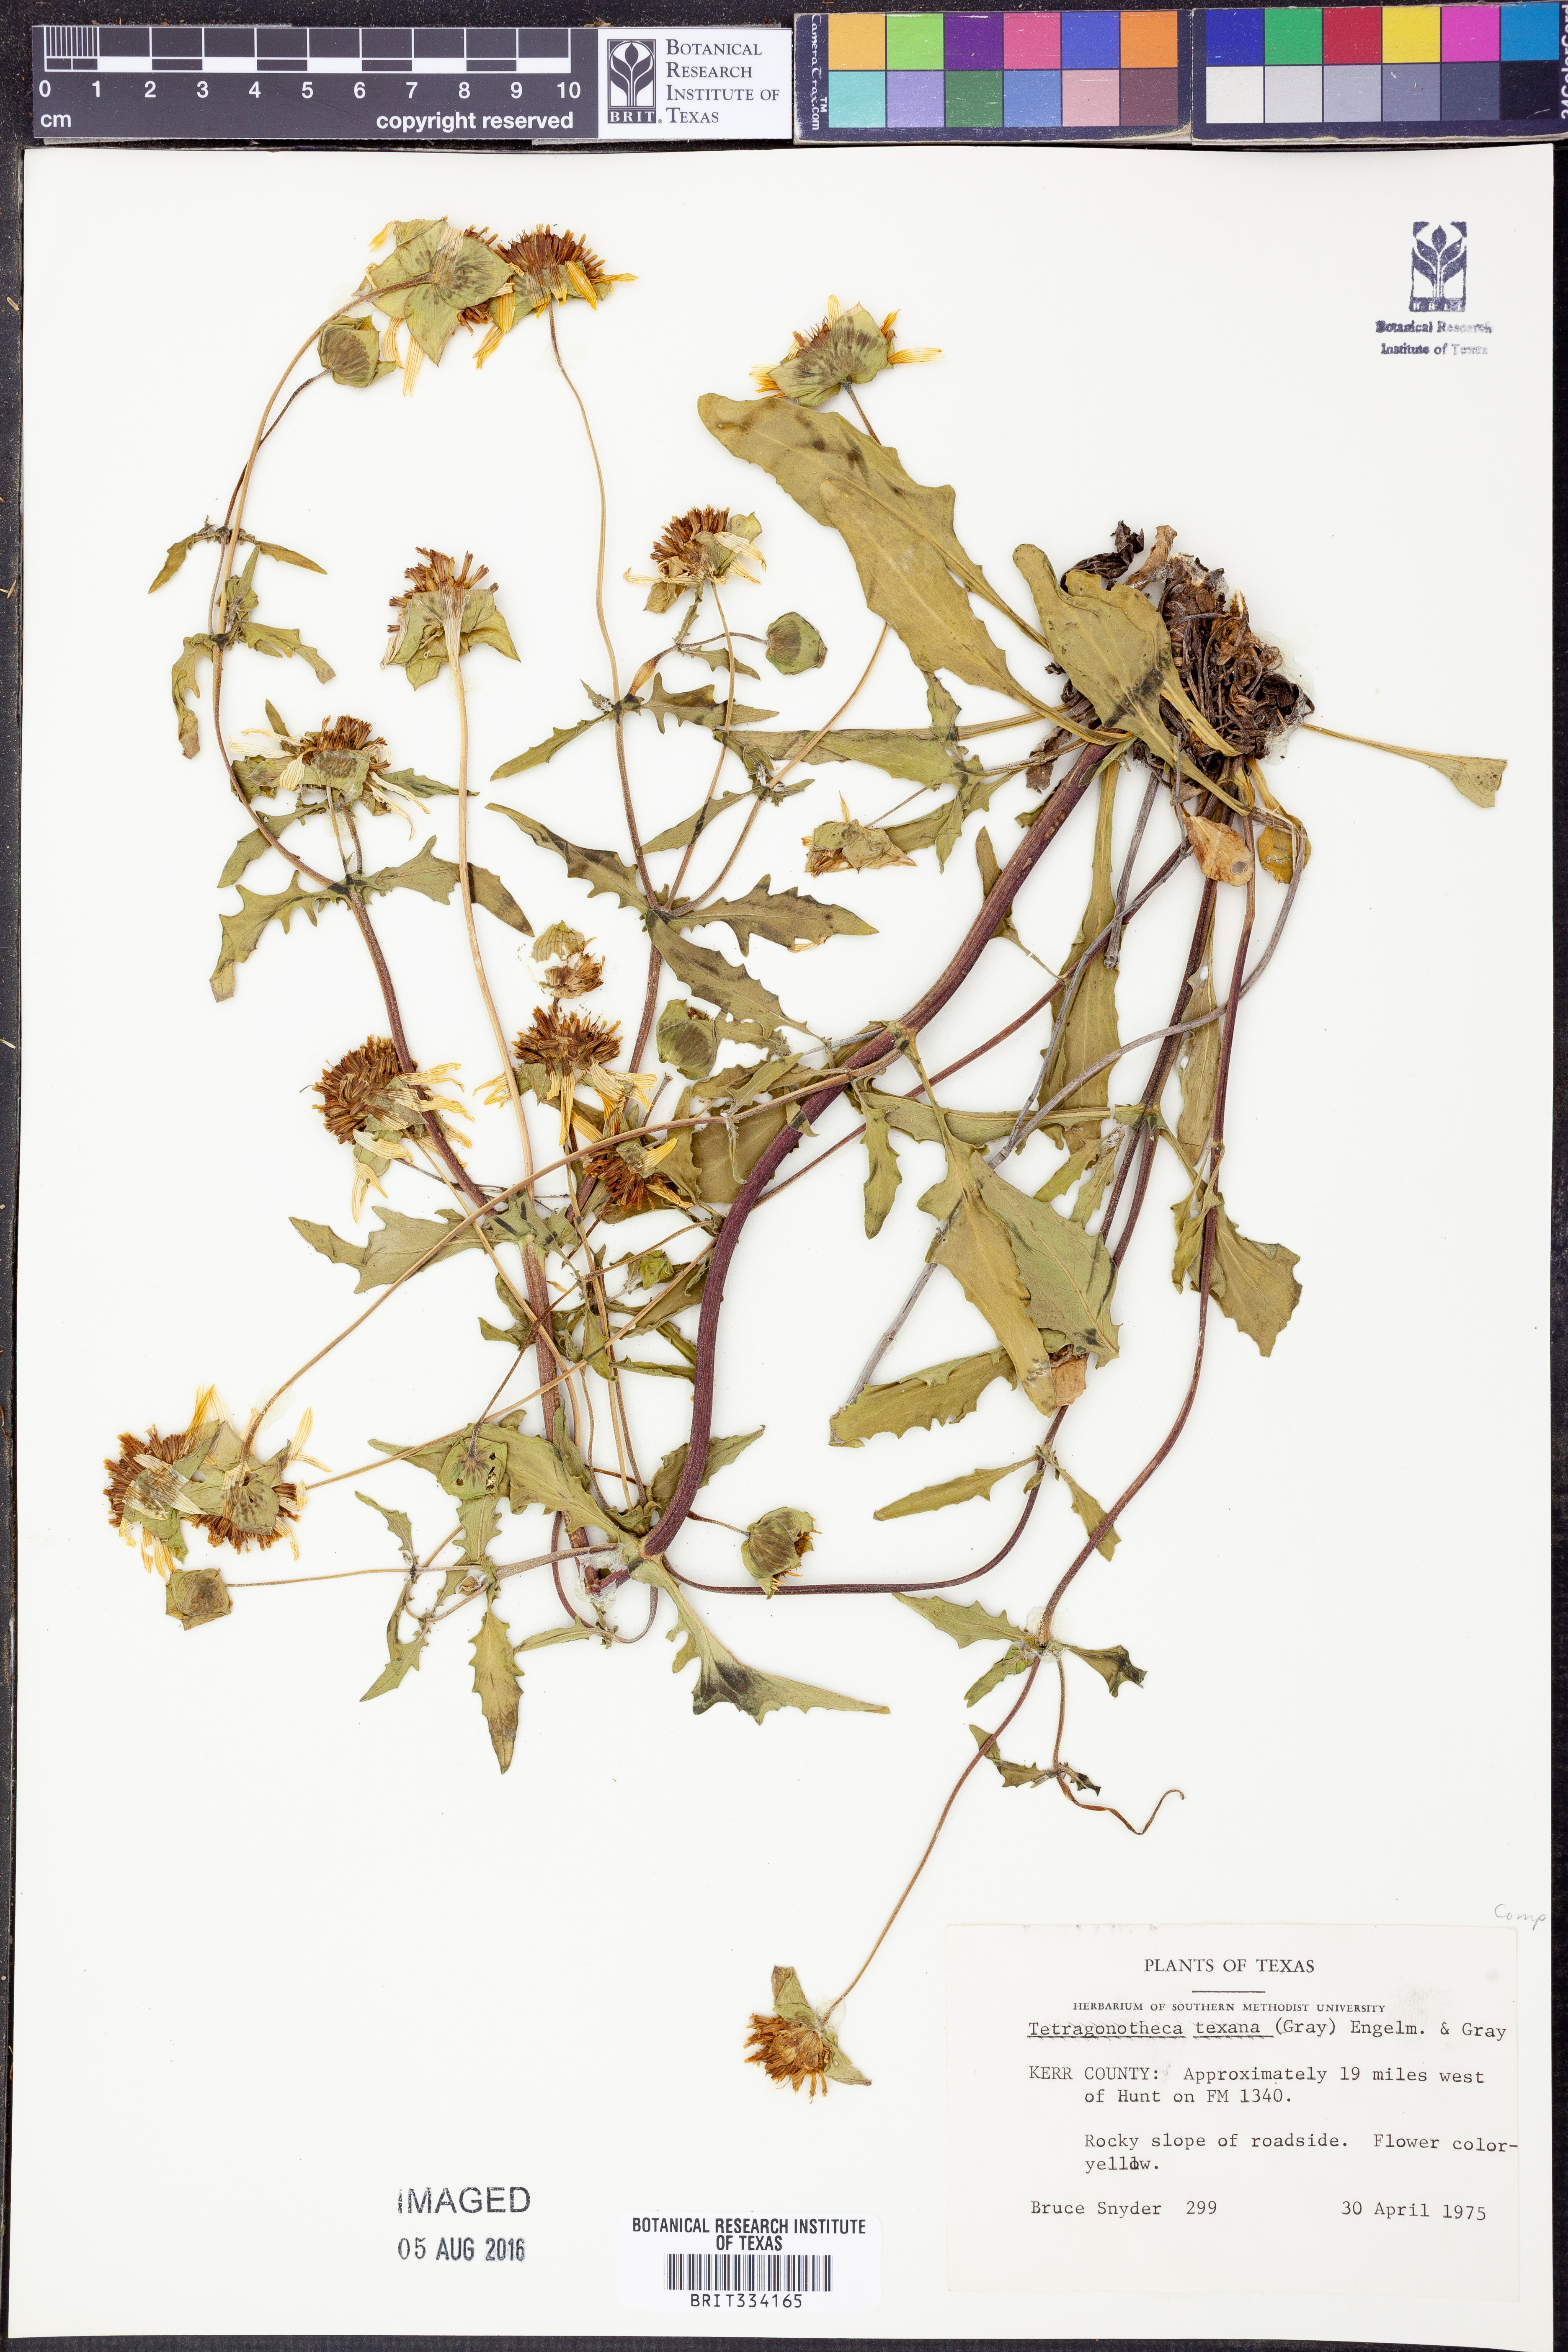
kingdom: Plantae
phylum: Tracheophyta
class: Magnoliopsida
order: Asterales
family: Asteraceae
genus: Tetragonotheca
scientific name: Tetragonotheca texana
